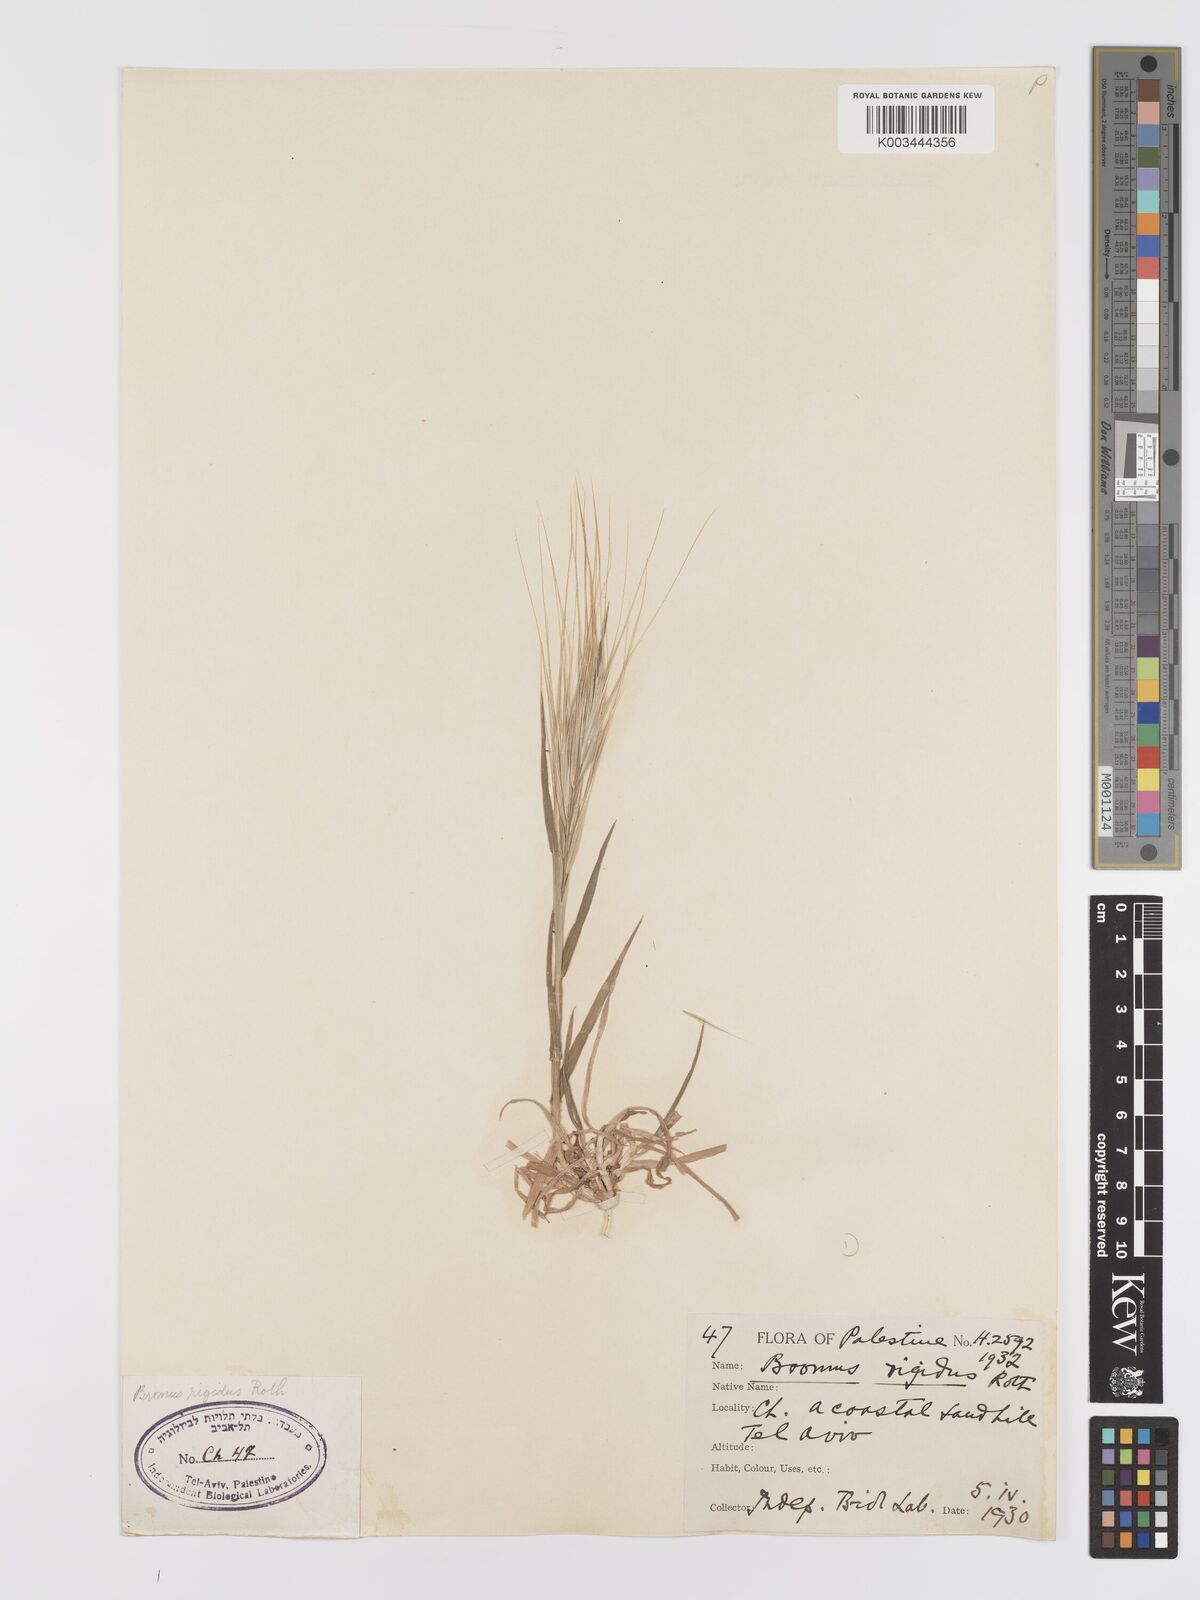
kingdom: Plantae
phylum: Tracheophyta
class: Liliopsida
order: Poales
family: Poaceae
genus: Bromus
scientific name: Bromus diandrus
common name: Ripgut brome
